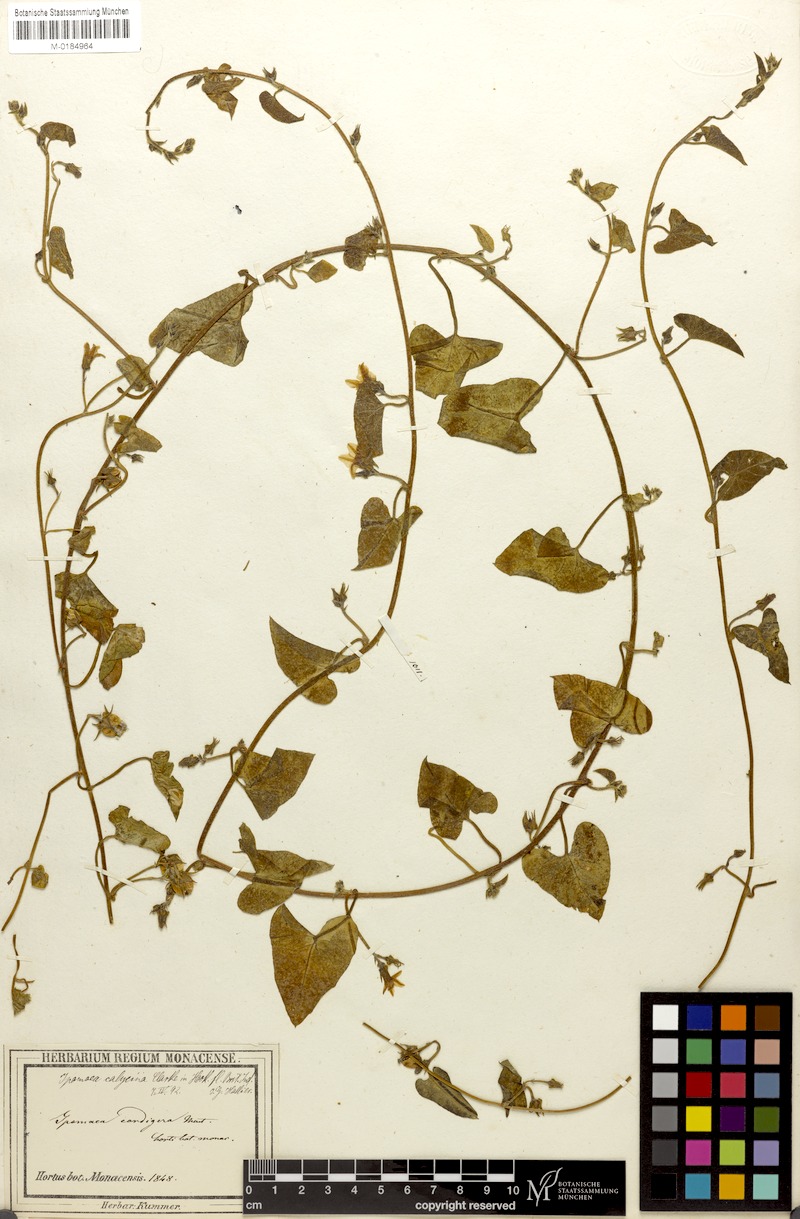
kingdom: Plantae
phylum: Tracheophyta
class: Magnoliopsida
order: Solanales
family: Convolvulaceae
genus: Ipomoea
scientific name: Ipomoea sinensis
